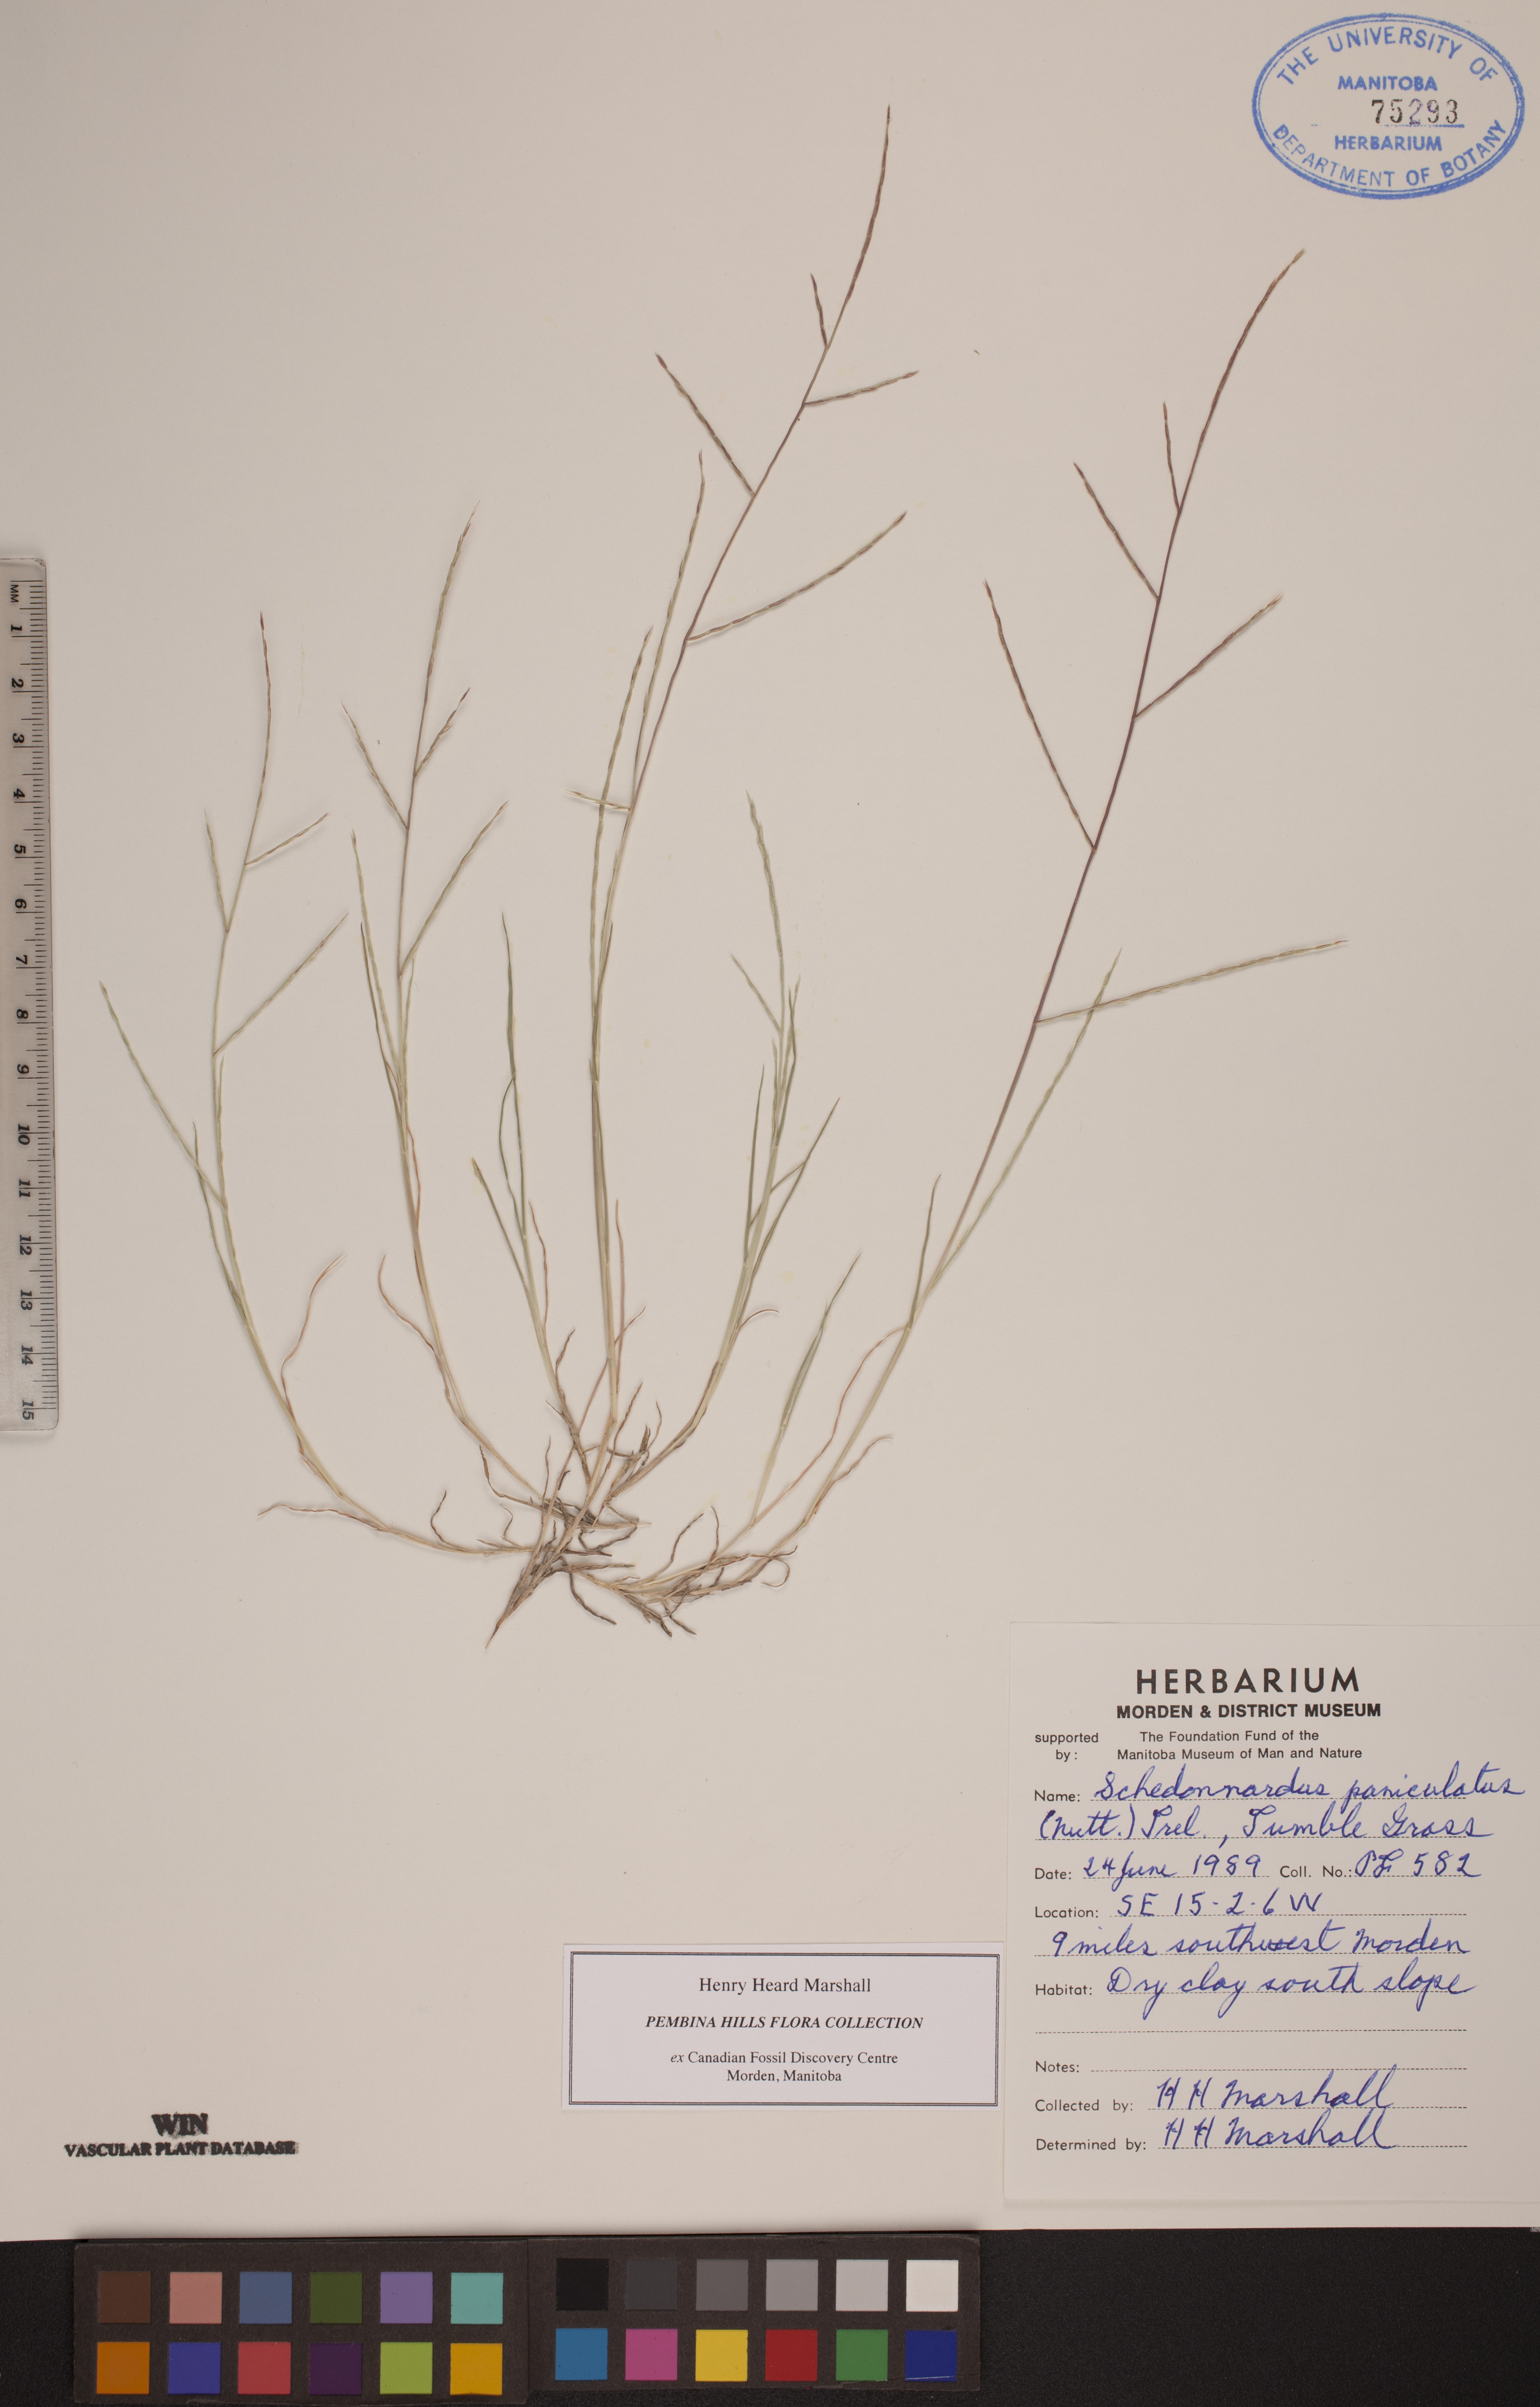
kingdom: Plantae
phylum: Tracheophyta
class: Liliopsida
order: Poales
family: Poaceae
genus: Muhlenbergia
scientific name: Muhlenbergia paniculata
